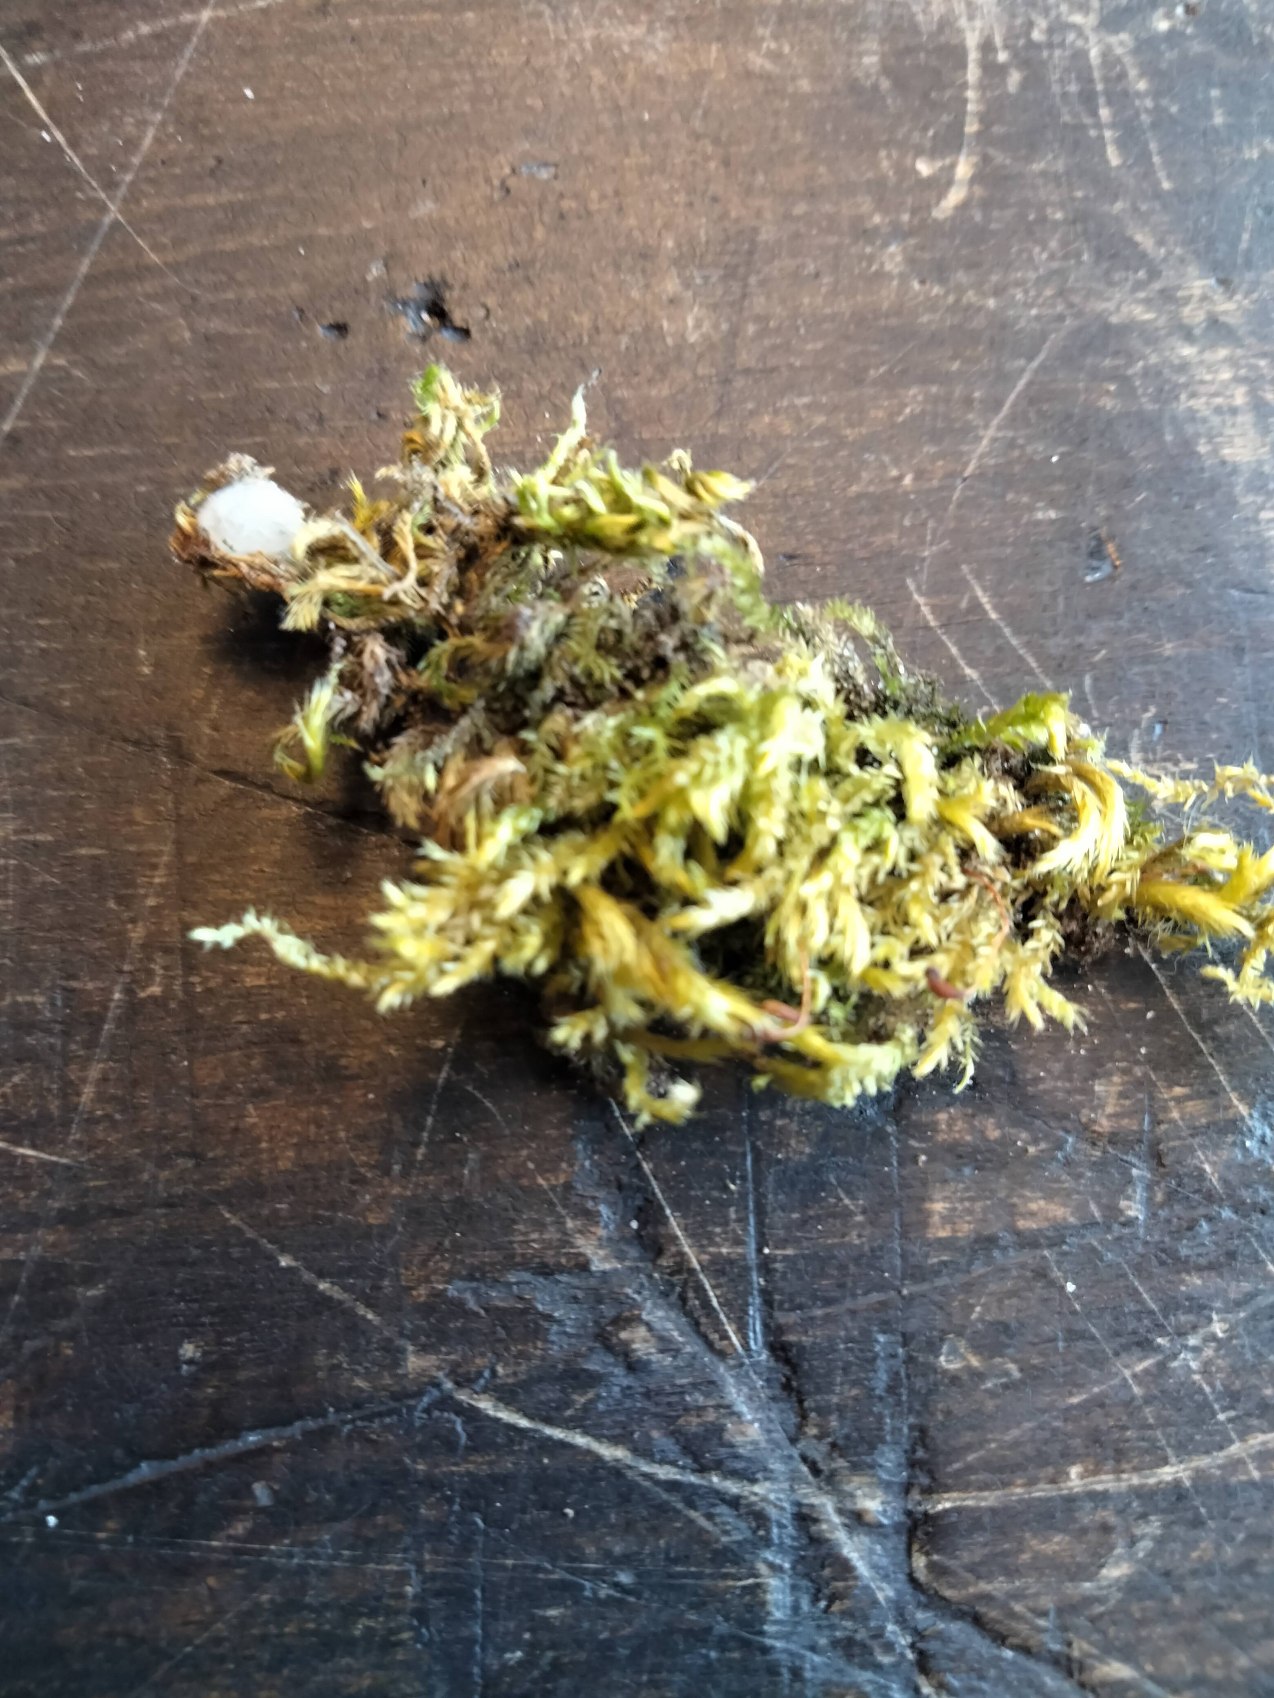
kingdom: Plantae
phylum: Bryophyta
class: Bryopsida
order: Hypnales
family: Brachytheciaceae
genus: Brachythecium
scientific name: Brachythecium rutabulum
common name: Almindelig kortkapsel
